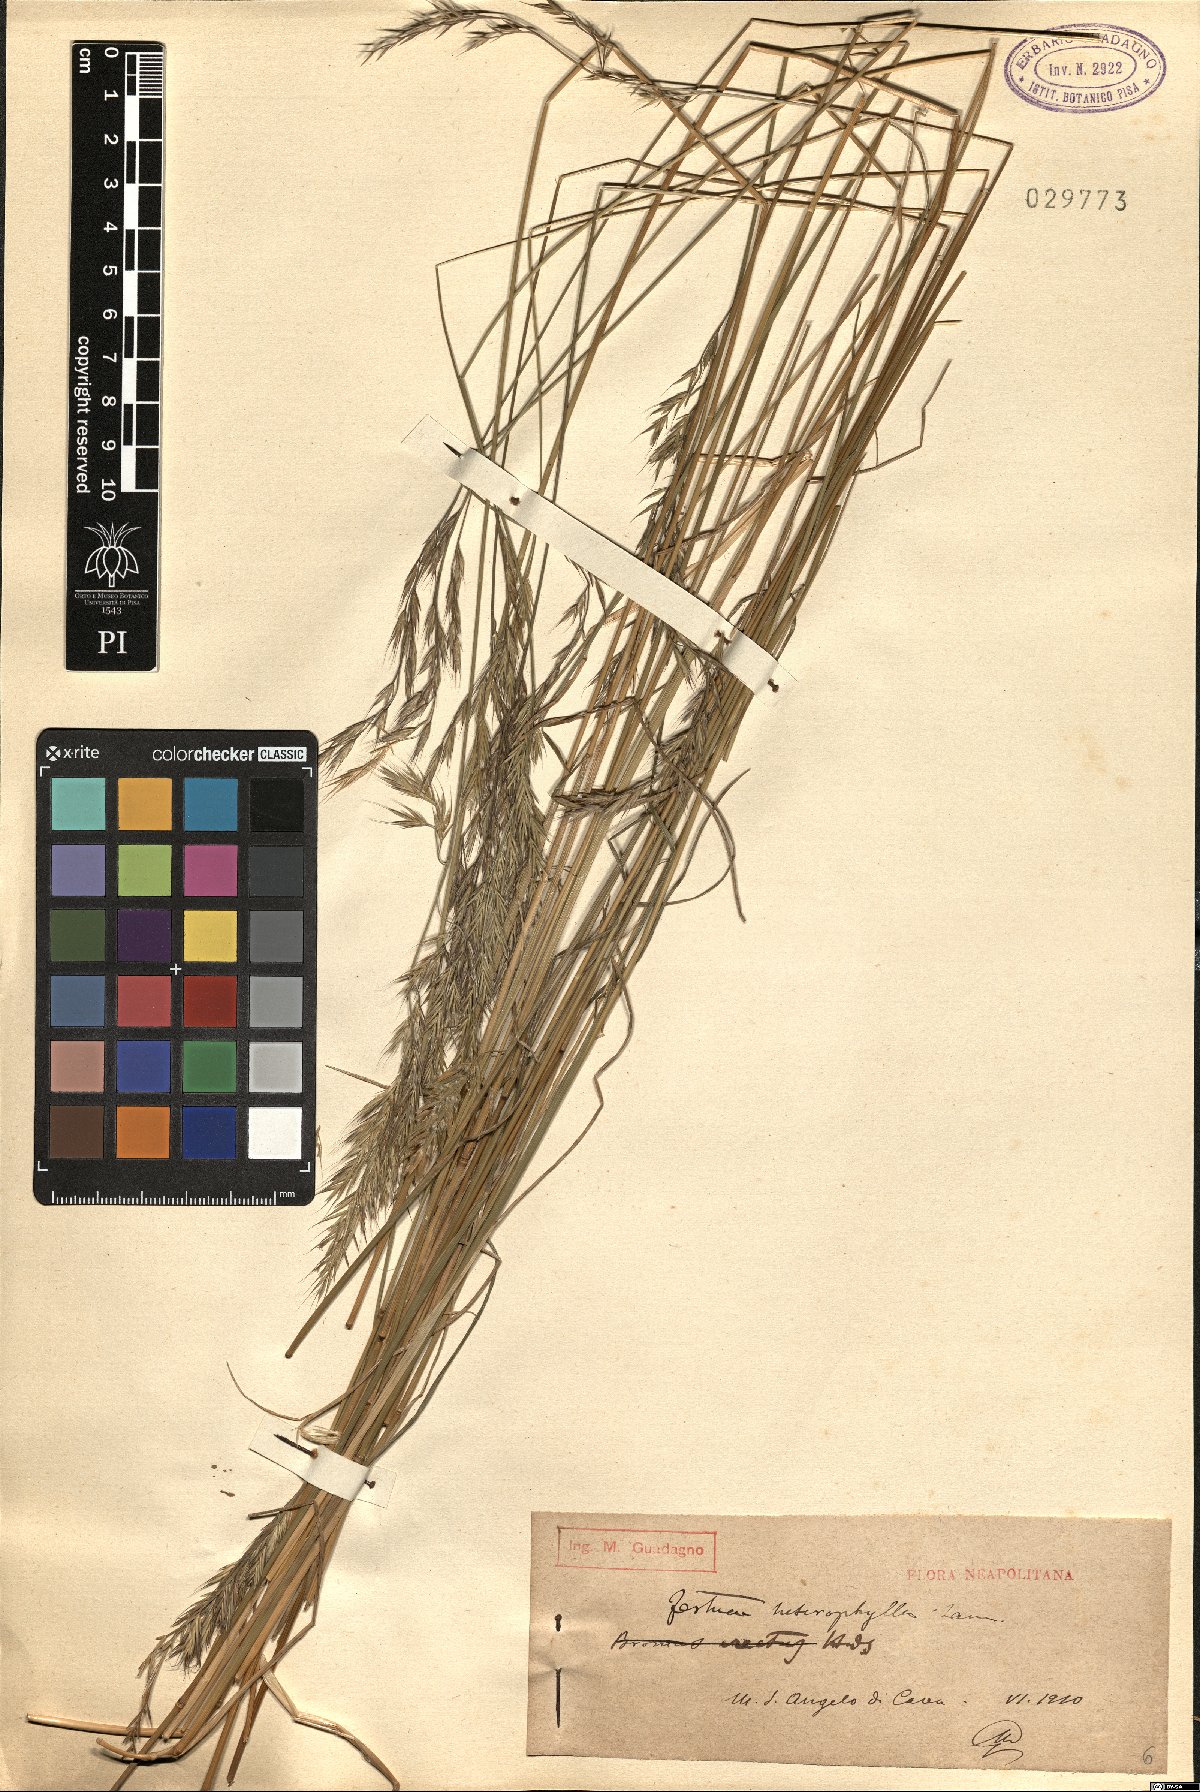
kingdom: Plantae
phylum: Tracheophyta
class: Liliopsida
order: Poales
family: Poaceae
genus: Festuca
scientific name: Festuca heterophylla
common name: Various-leaved fescue
